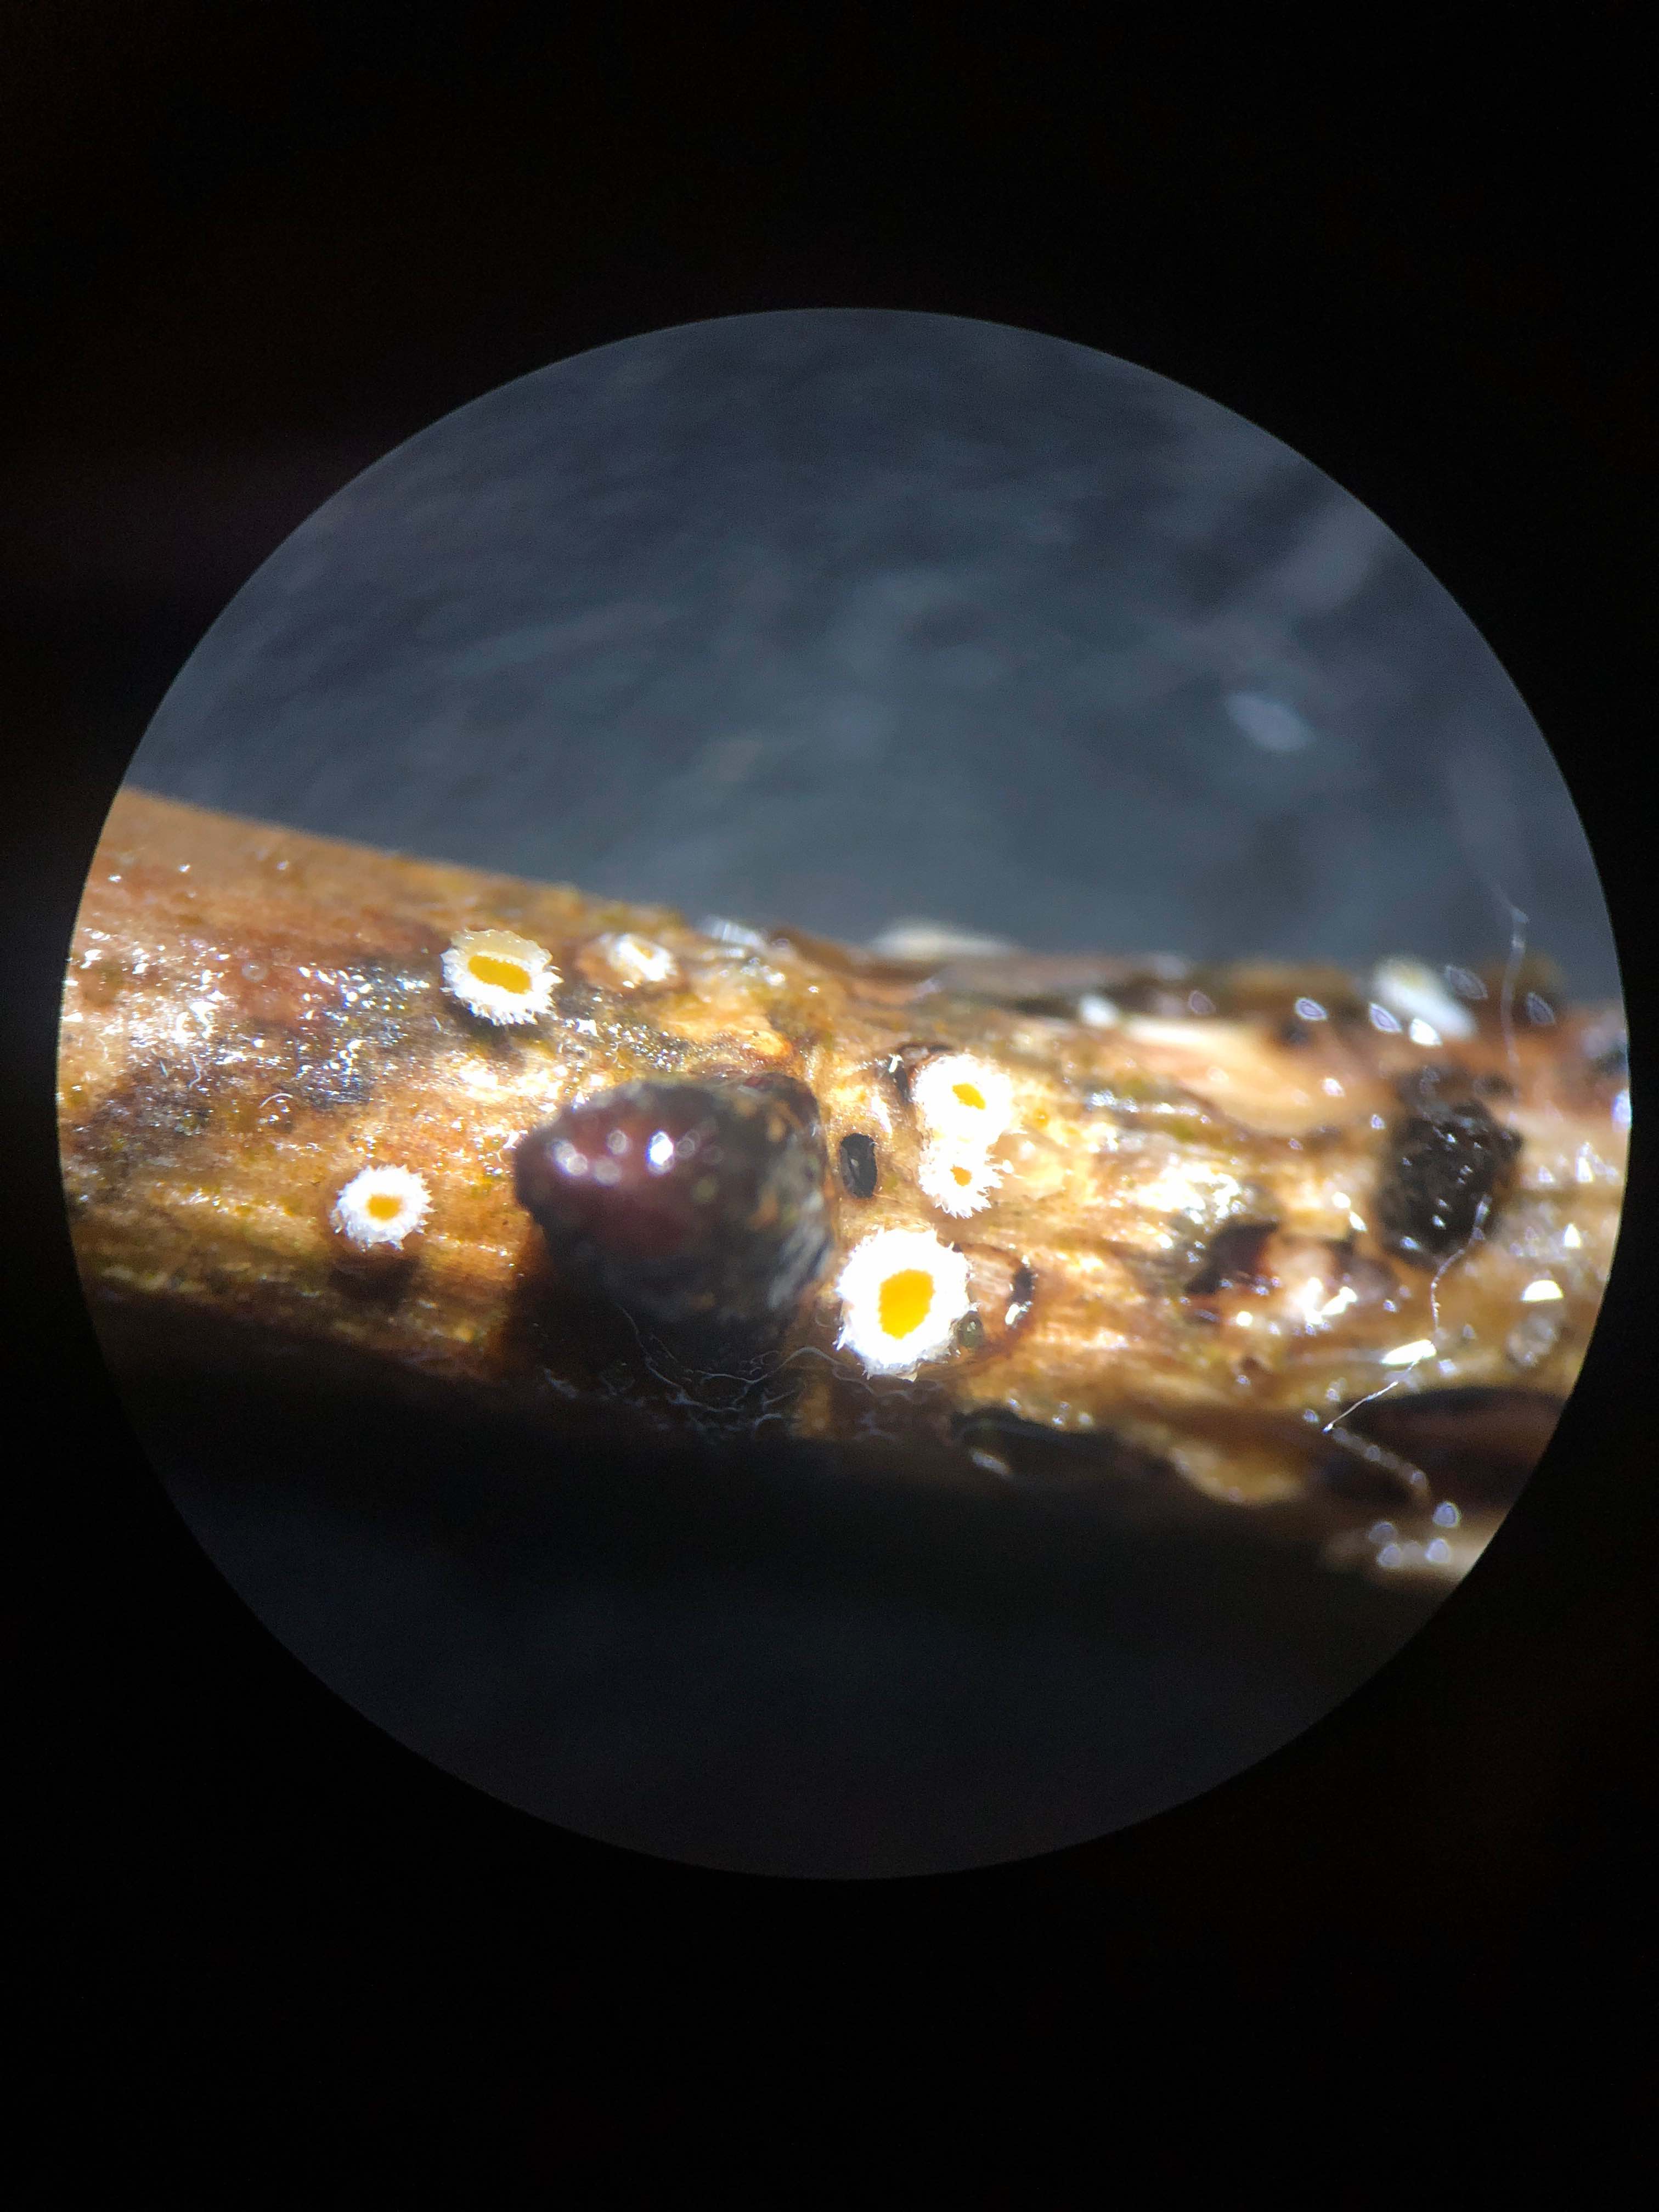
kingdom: Fungi
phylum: Ascomycota
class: Leotiomycetes
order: Helotiales
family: Lachnaceae
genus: Capitotricha
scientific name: Capitotricha bicolor
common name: prægtig frynseskive
